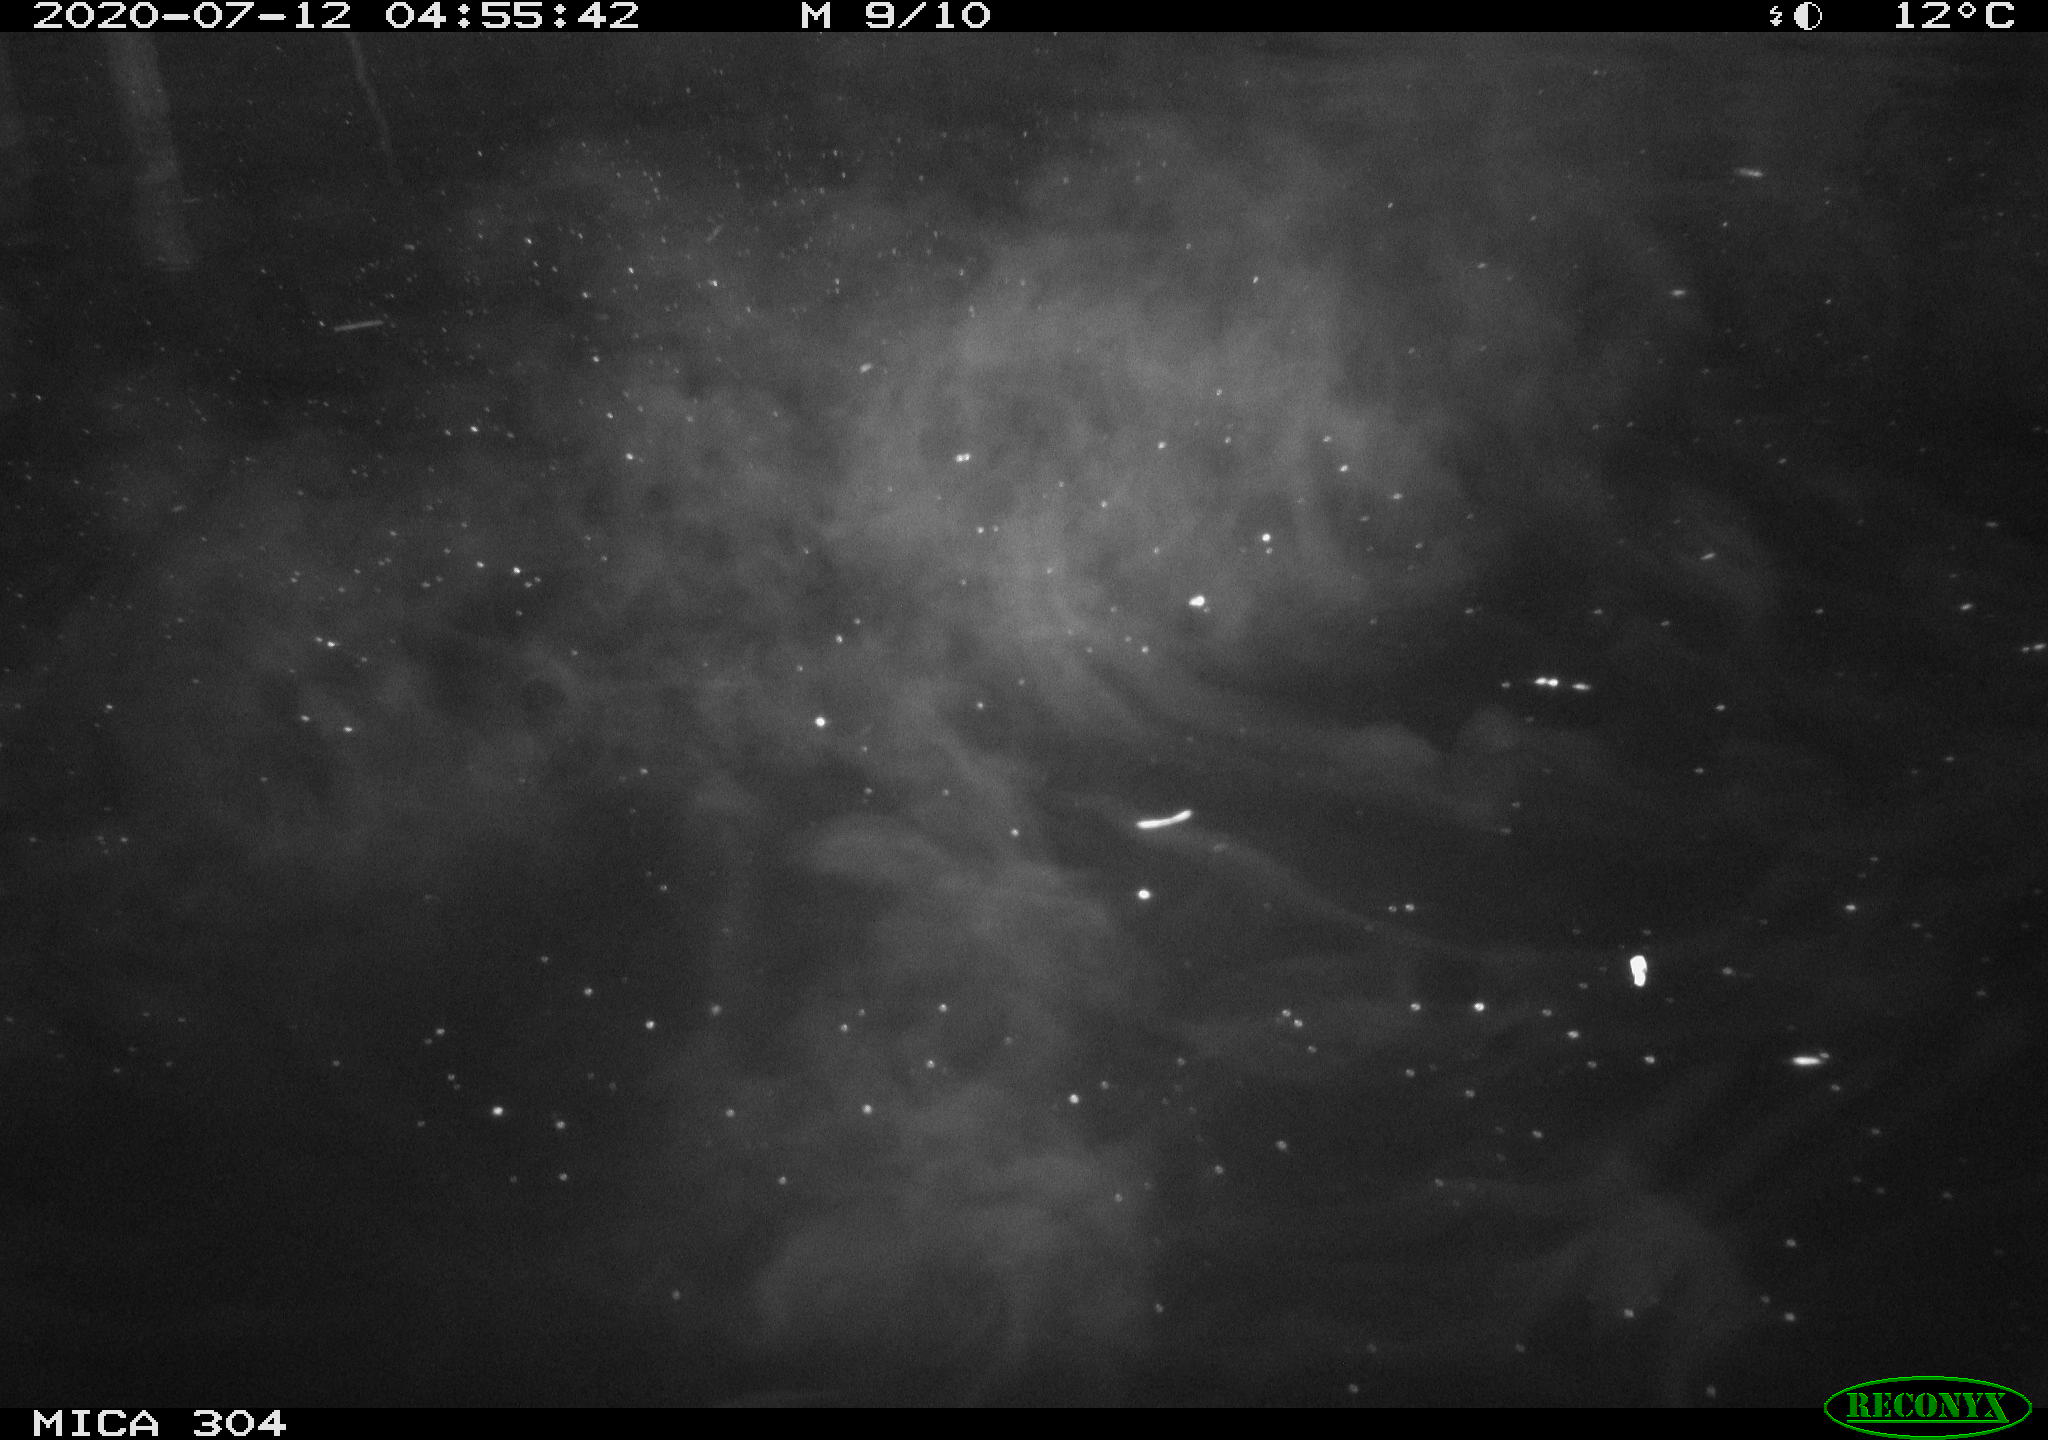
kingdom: Animalia
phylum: Chordata
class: Aves
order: Anseriformes
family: Anatidae
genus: Anas
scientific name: Anas platyrhynchos
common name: Mallard
